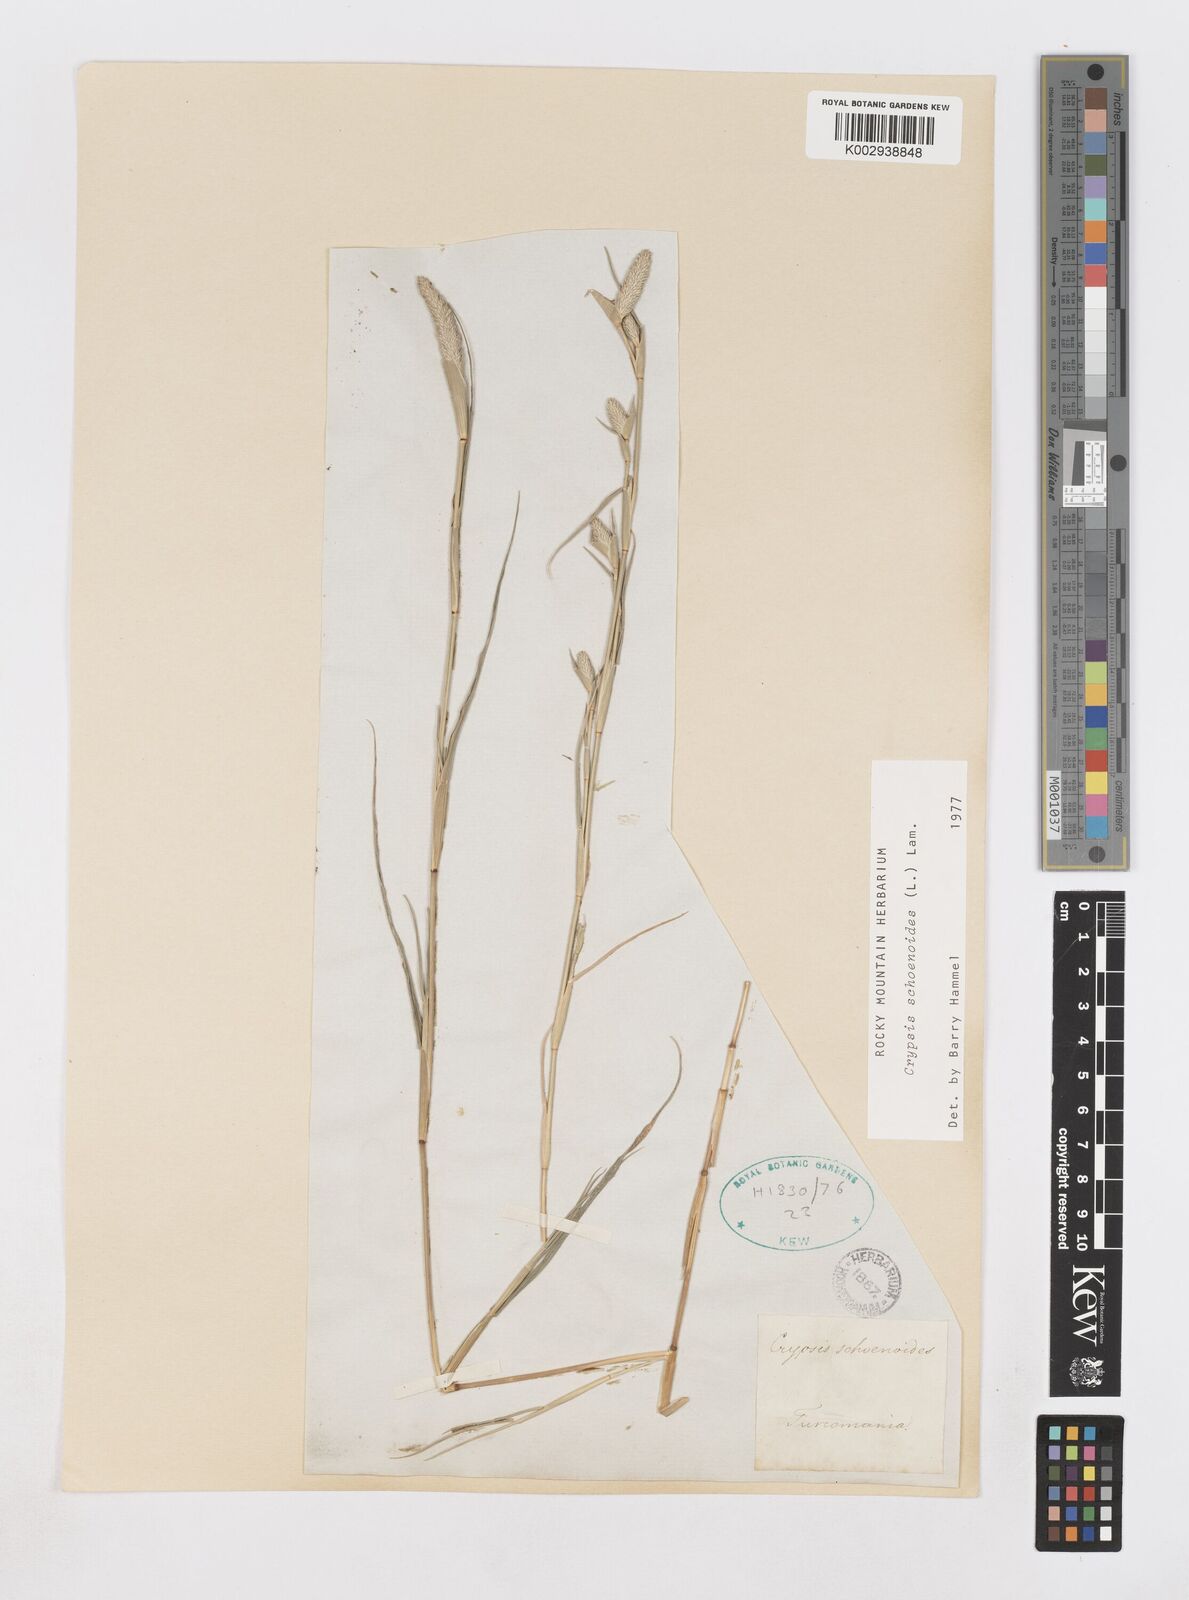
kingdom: Plantae
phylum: Tracheophyta
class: Liliopsida
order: Poales
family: Poaceae
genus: Sporobolus
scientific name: Sporobolus schoenoides
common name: Rush-like timothy
